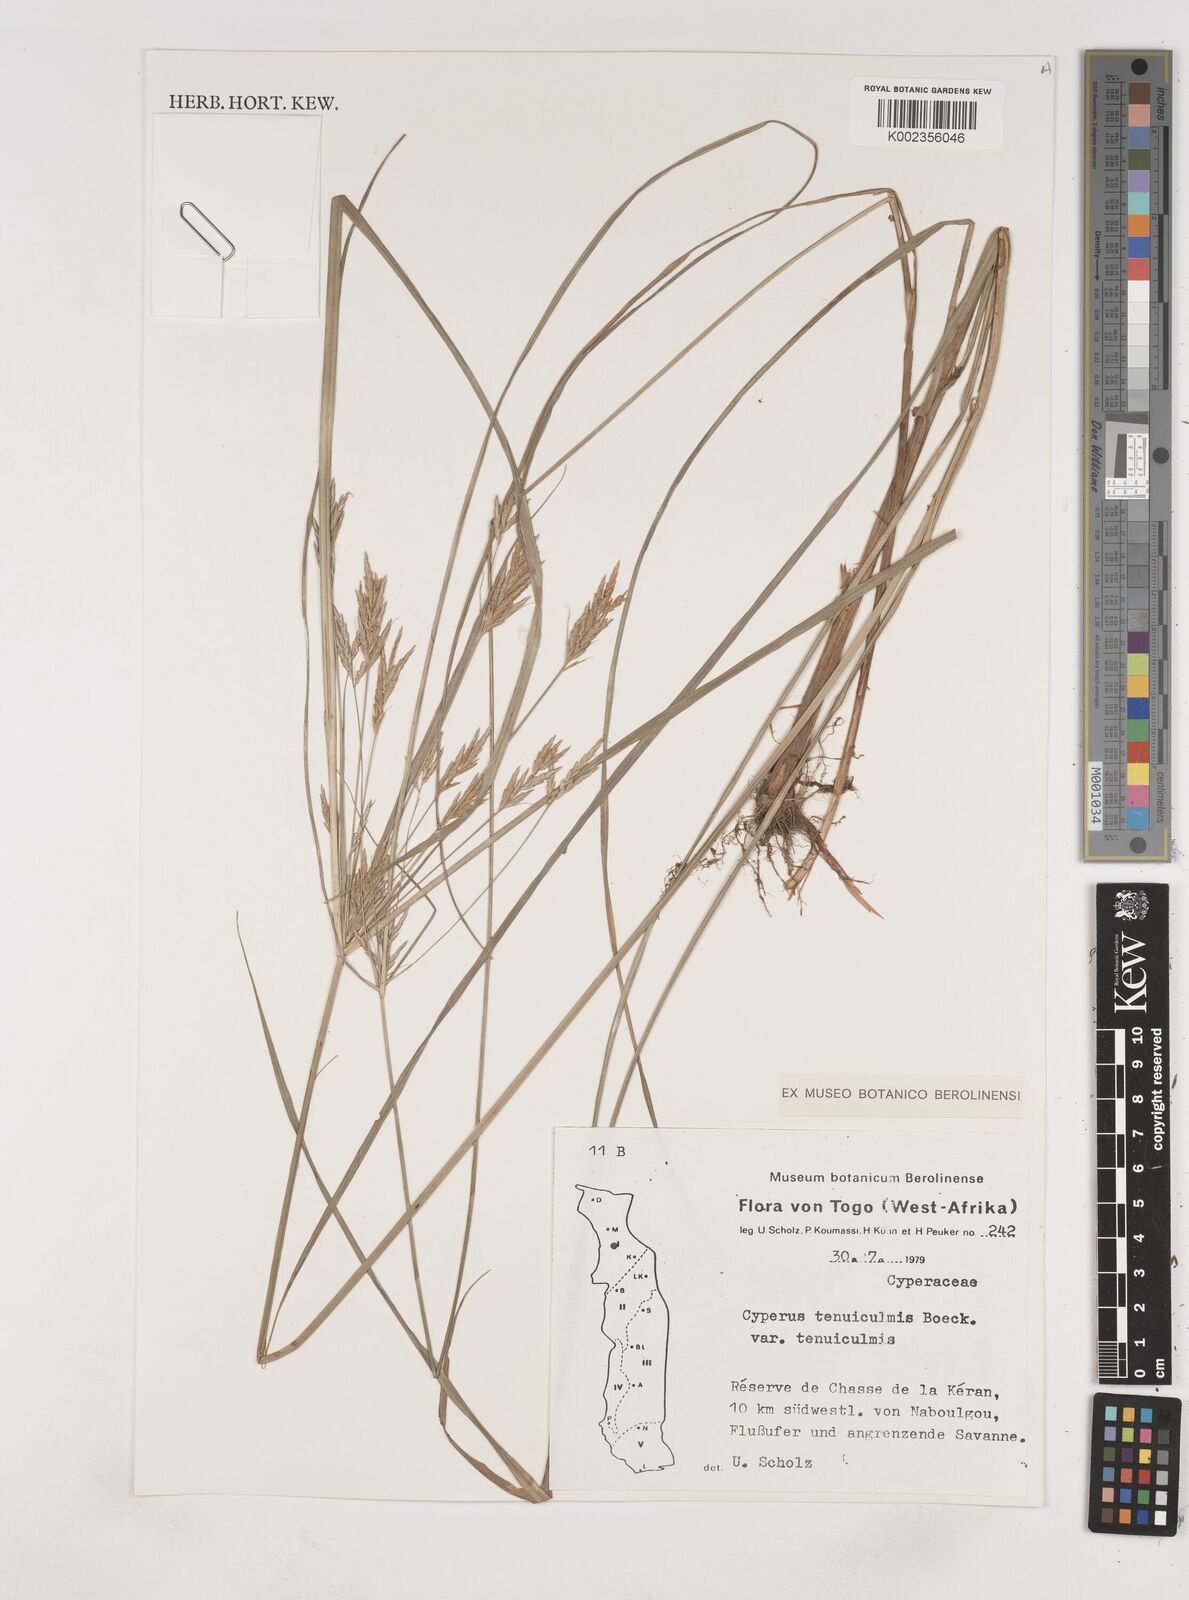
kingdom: Plantae
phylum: Tracheophyta
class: Liliopsida
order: Poales
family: Cyperaceae
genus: Cyperus
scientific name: Cyperus tenuiculmis
